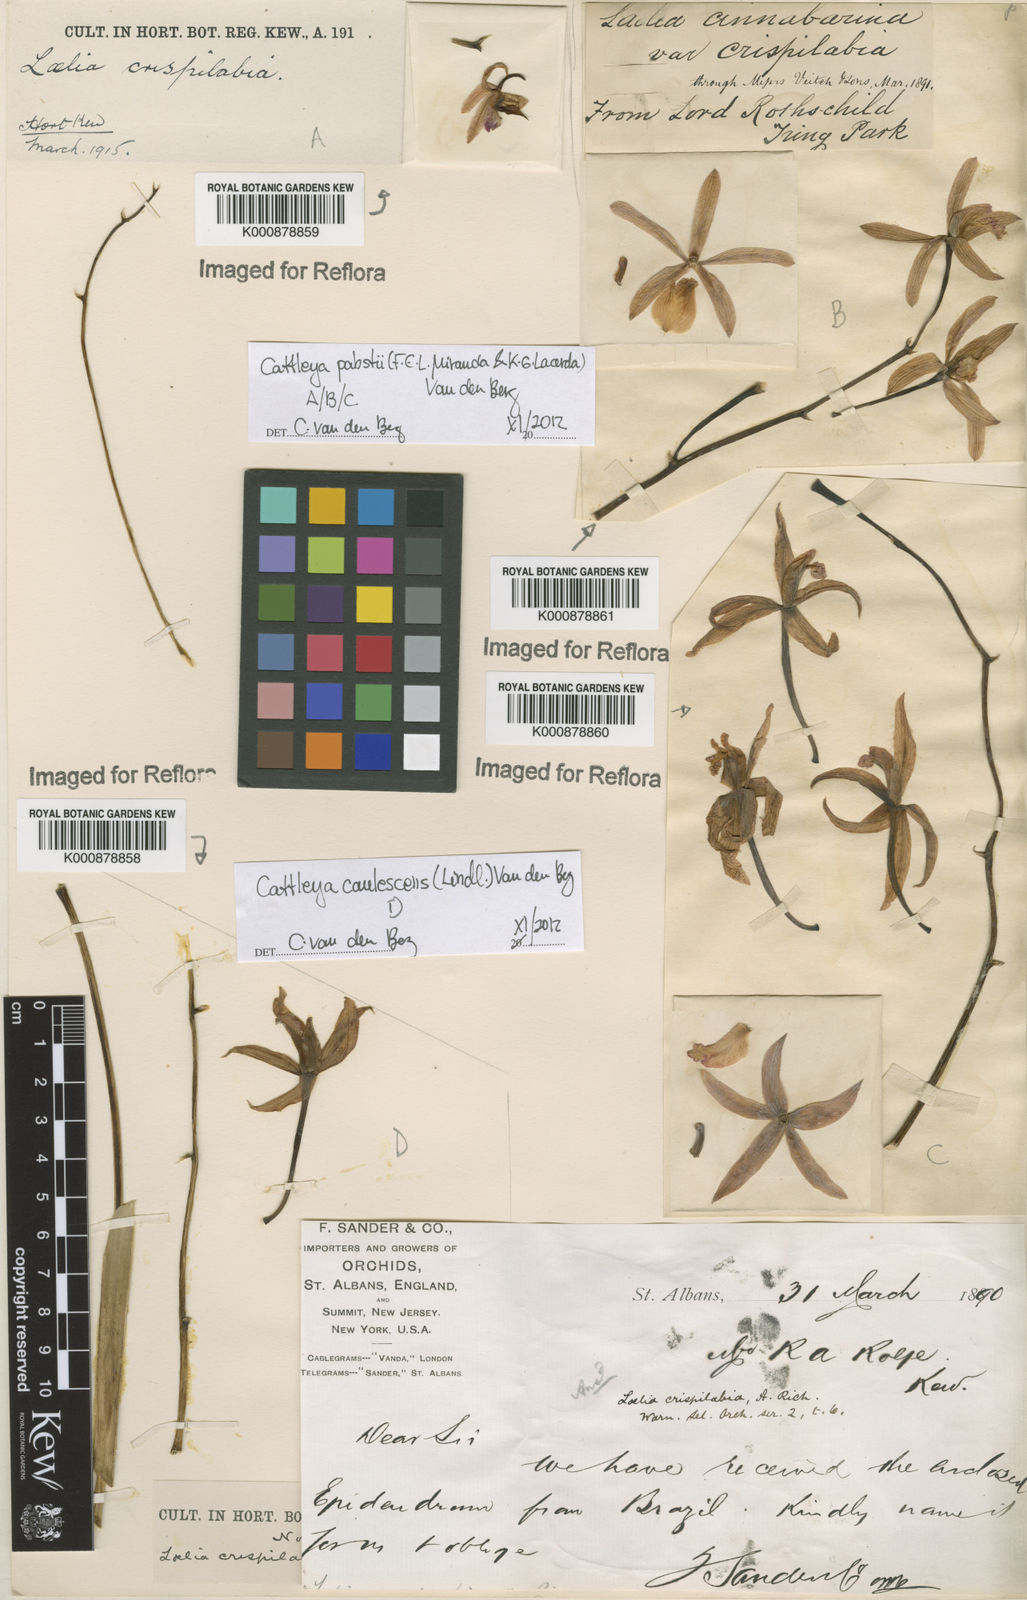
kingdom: Plantae
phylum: Tracheophyta
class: Liliopsida
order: Asparagales
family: Orchidaceae
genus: Cattleya
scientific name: Cattleya caulescens
